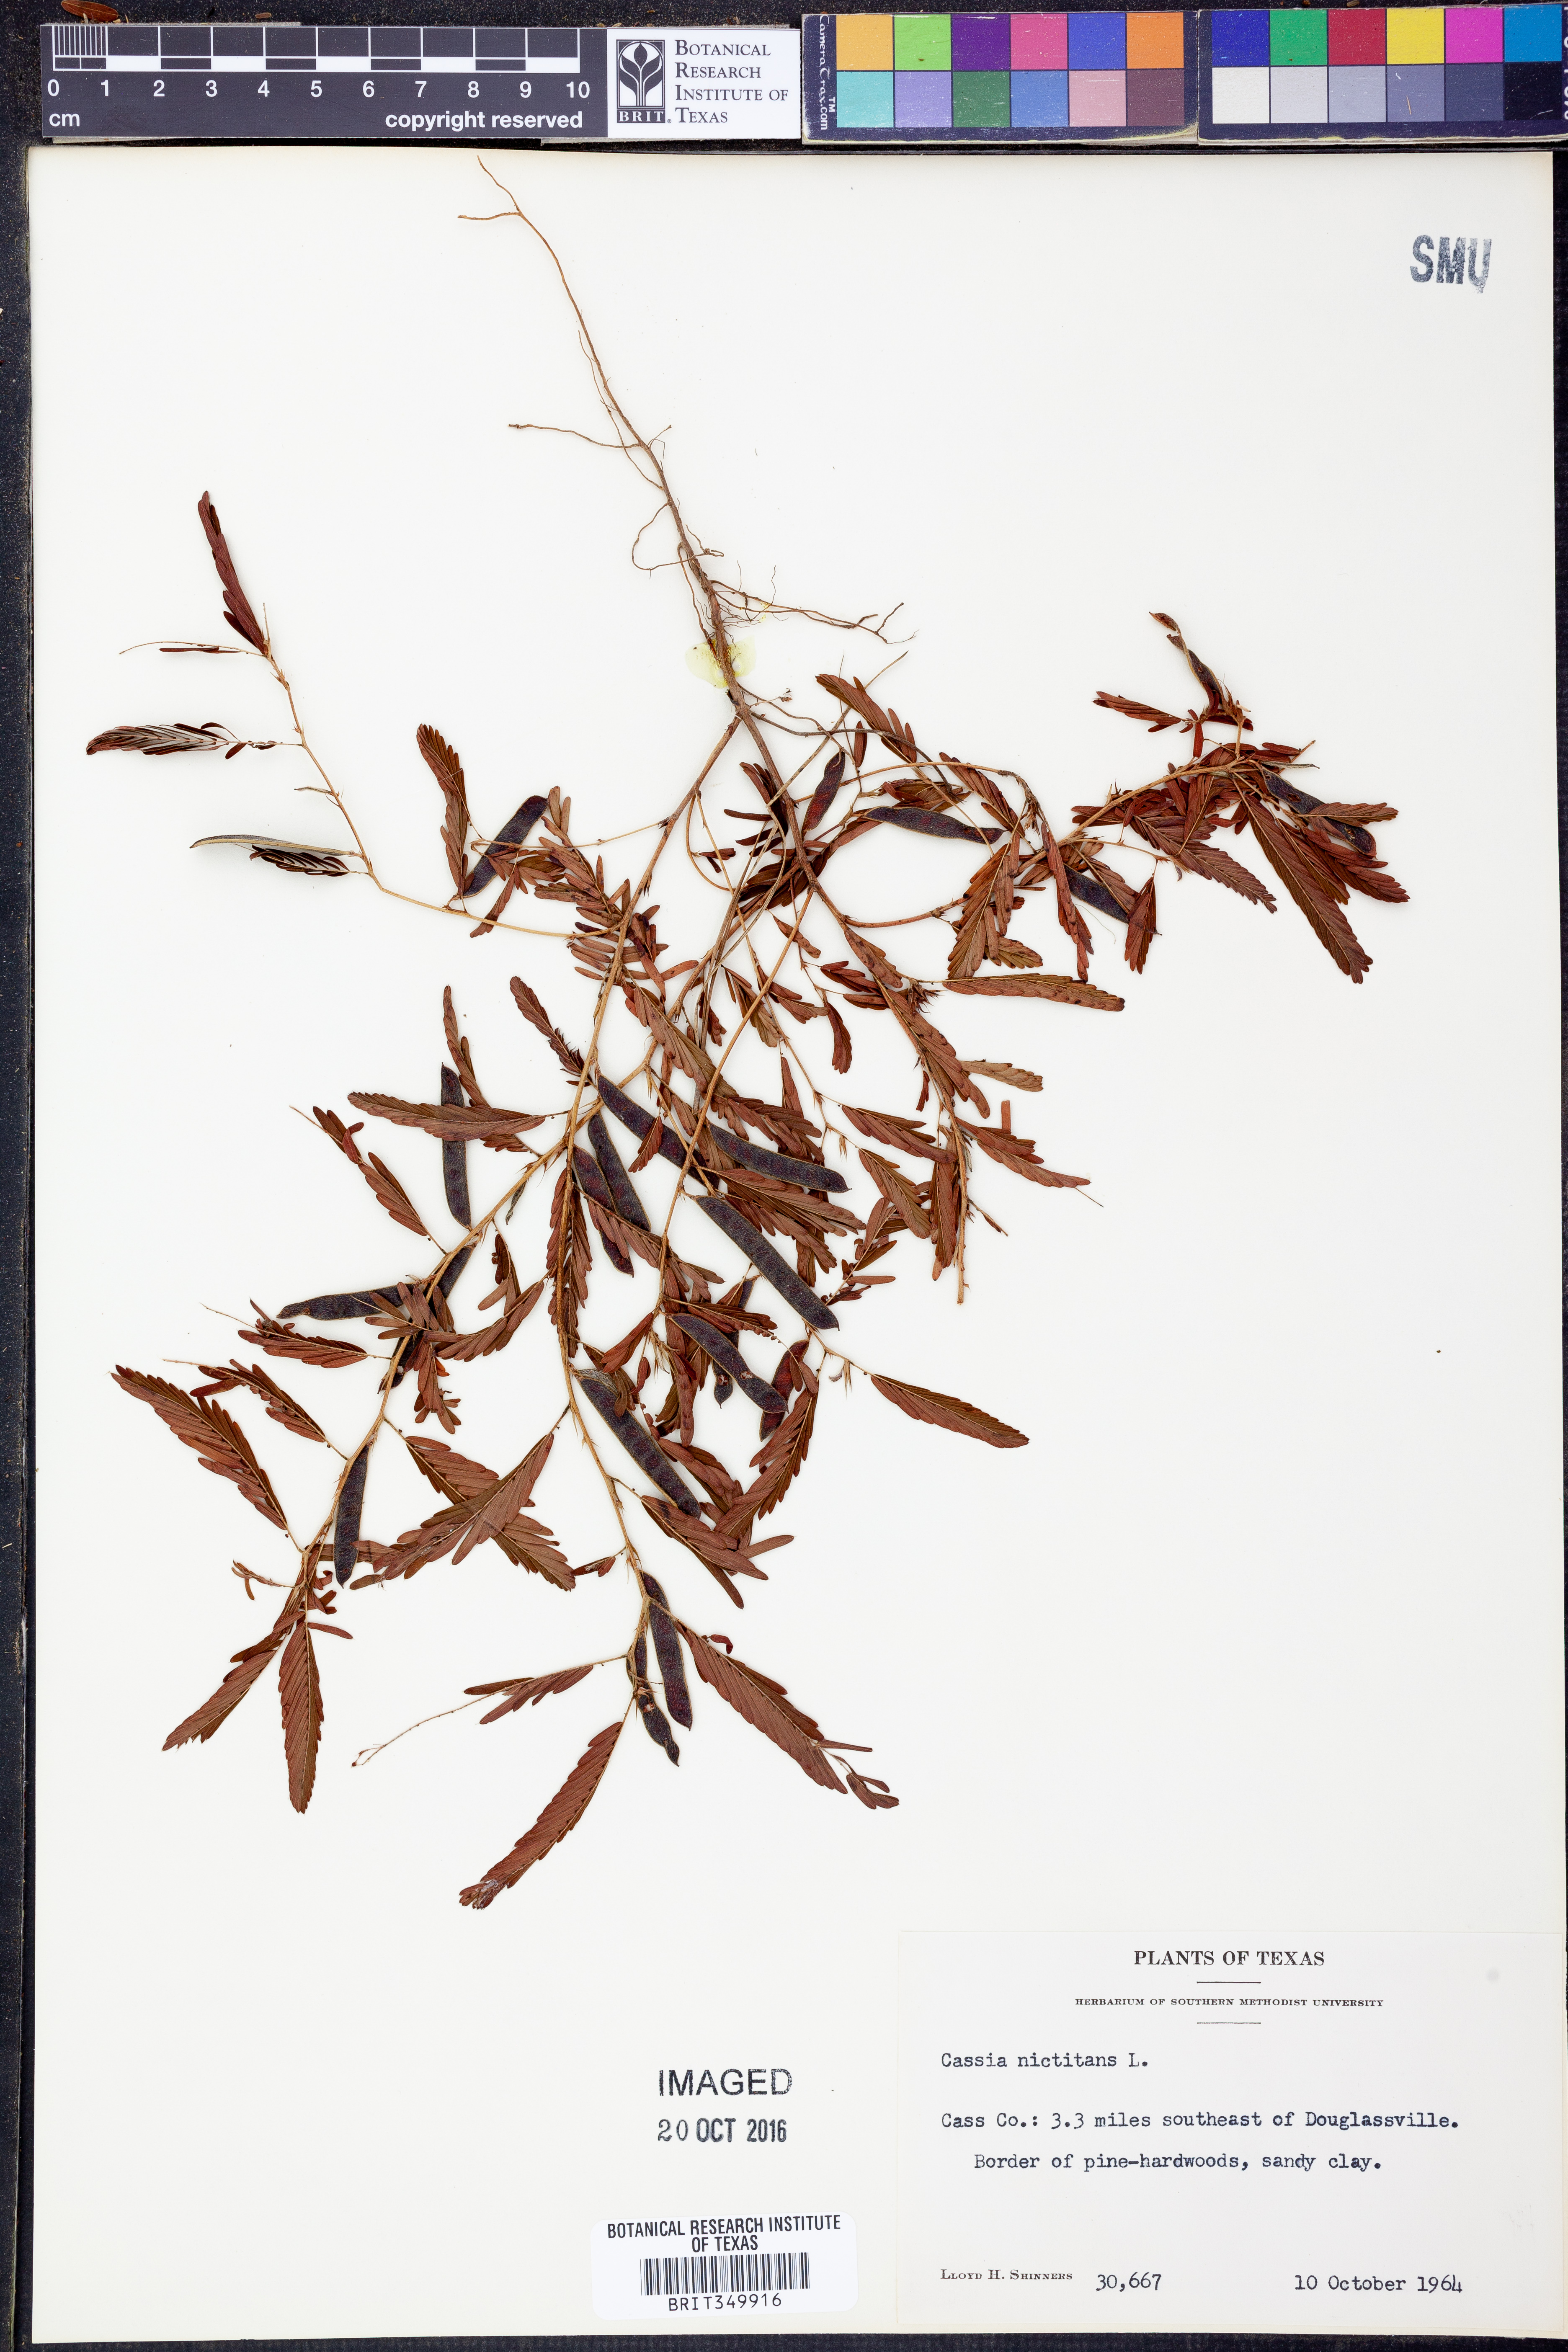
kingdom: Plantae
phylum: Tracheophyta
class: Magnoliopsida
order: Fabales
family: Fabaceae
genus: Chamaecrista
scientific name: Chamaecrista nictitans
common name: Sensitive cassia
